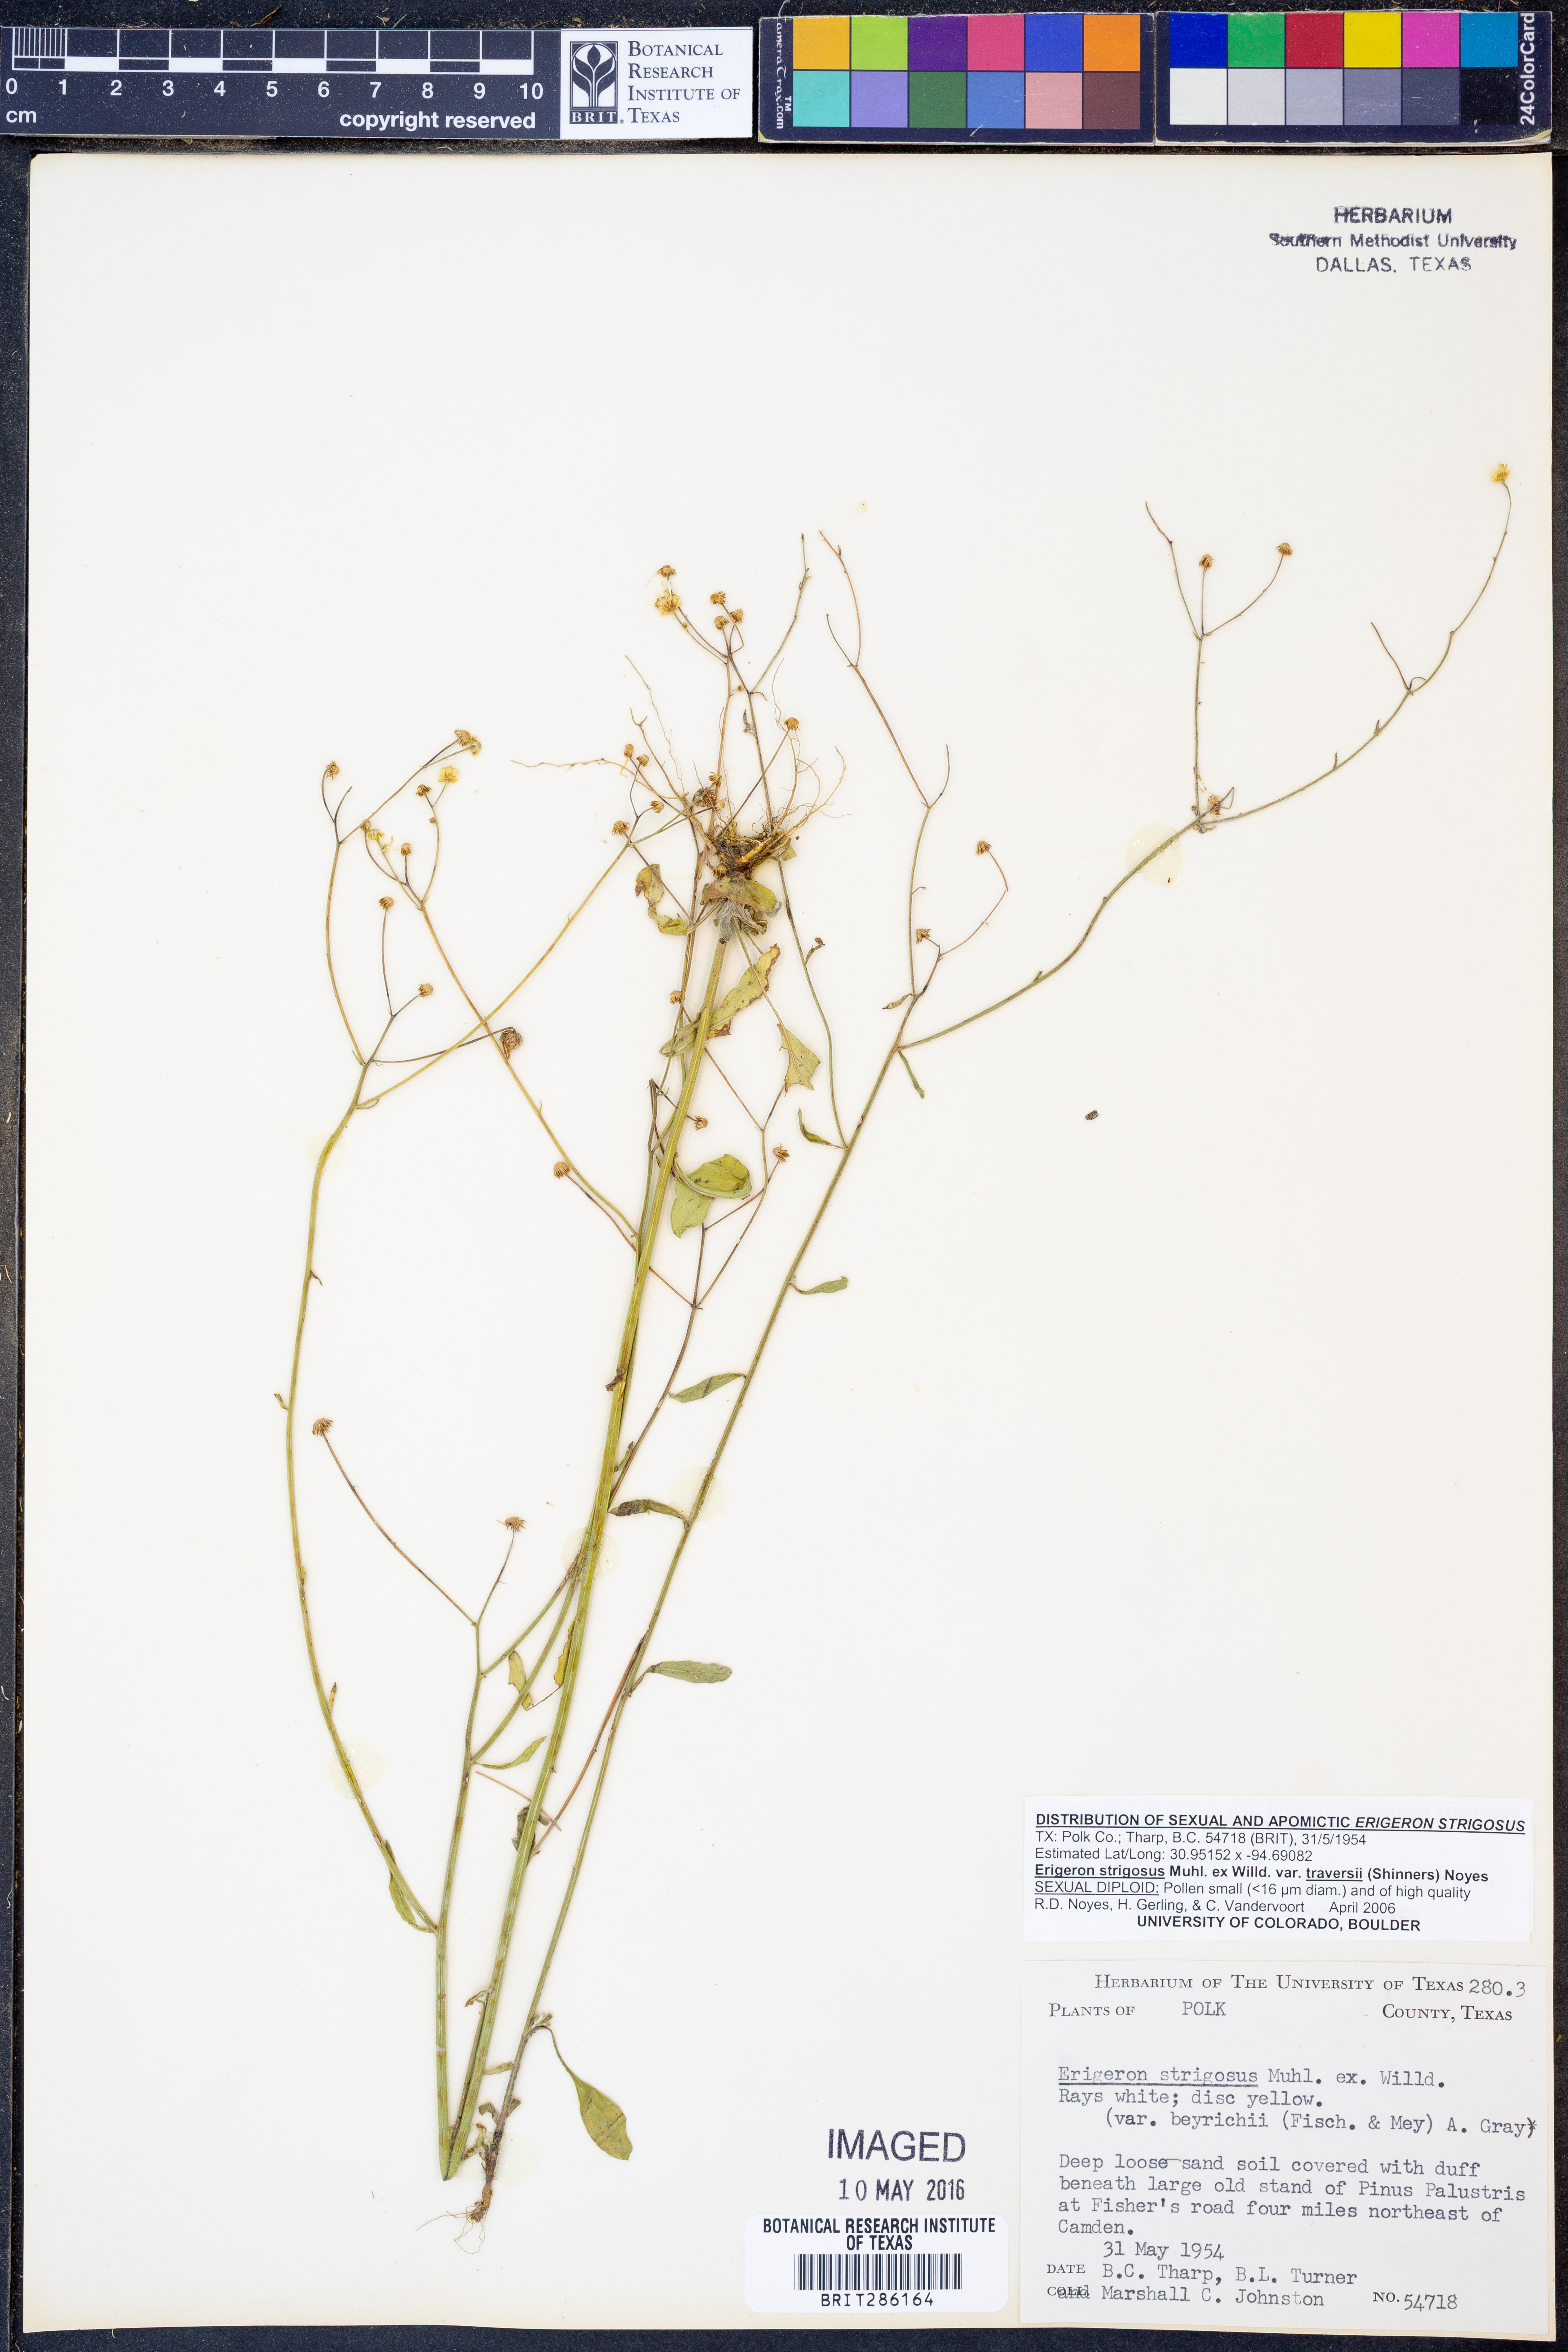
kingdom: Plantae
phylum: Tracheophyta
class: Magnoliopsida
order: Asterales
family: Asteraceae
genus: Erigeron
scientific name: Erigeron strigosus
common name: Common eastern fleabane
